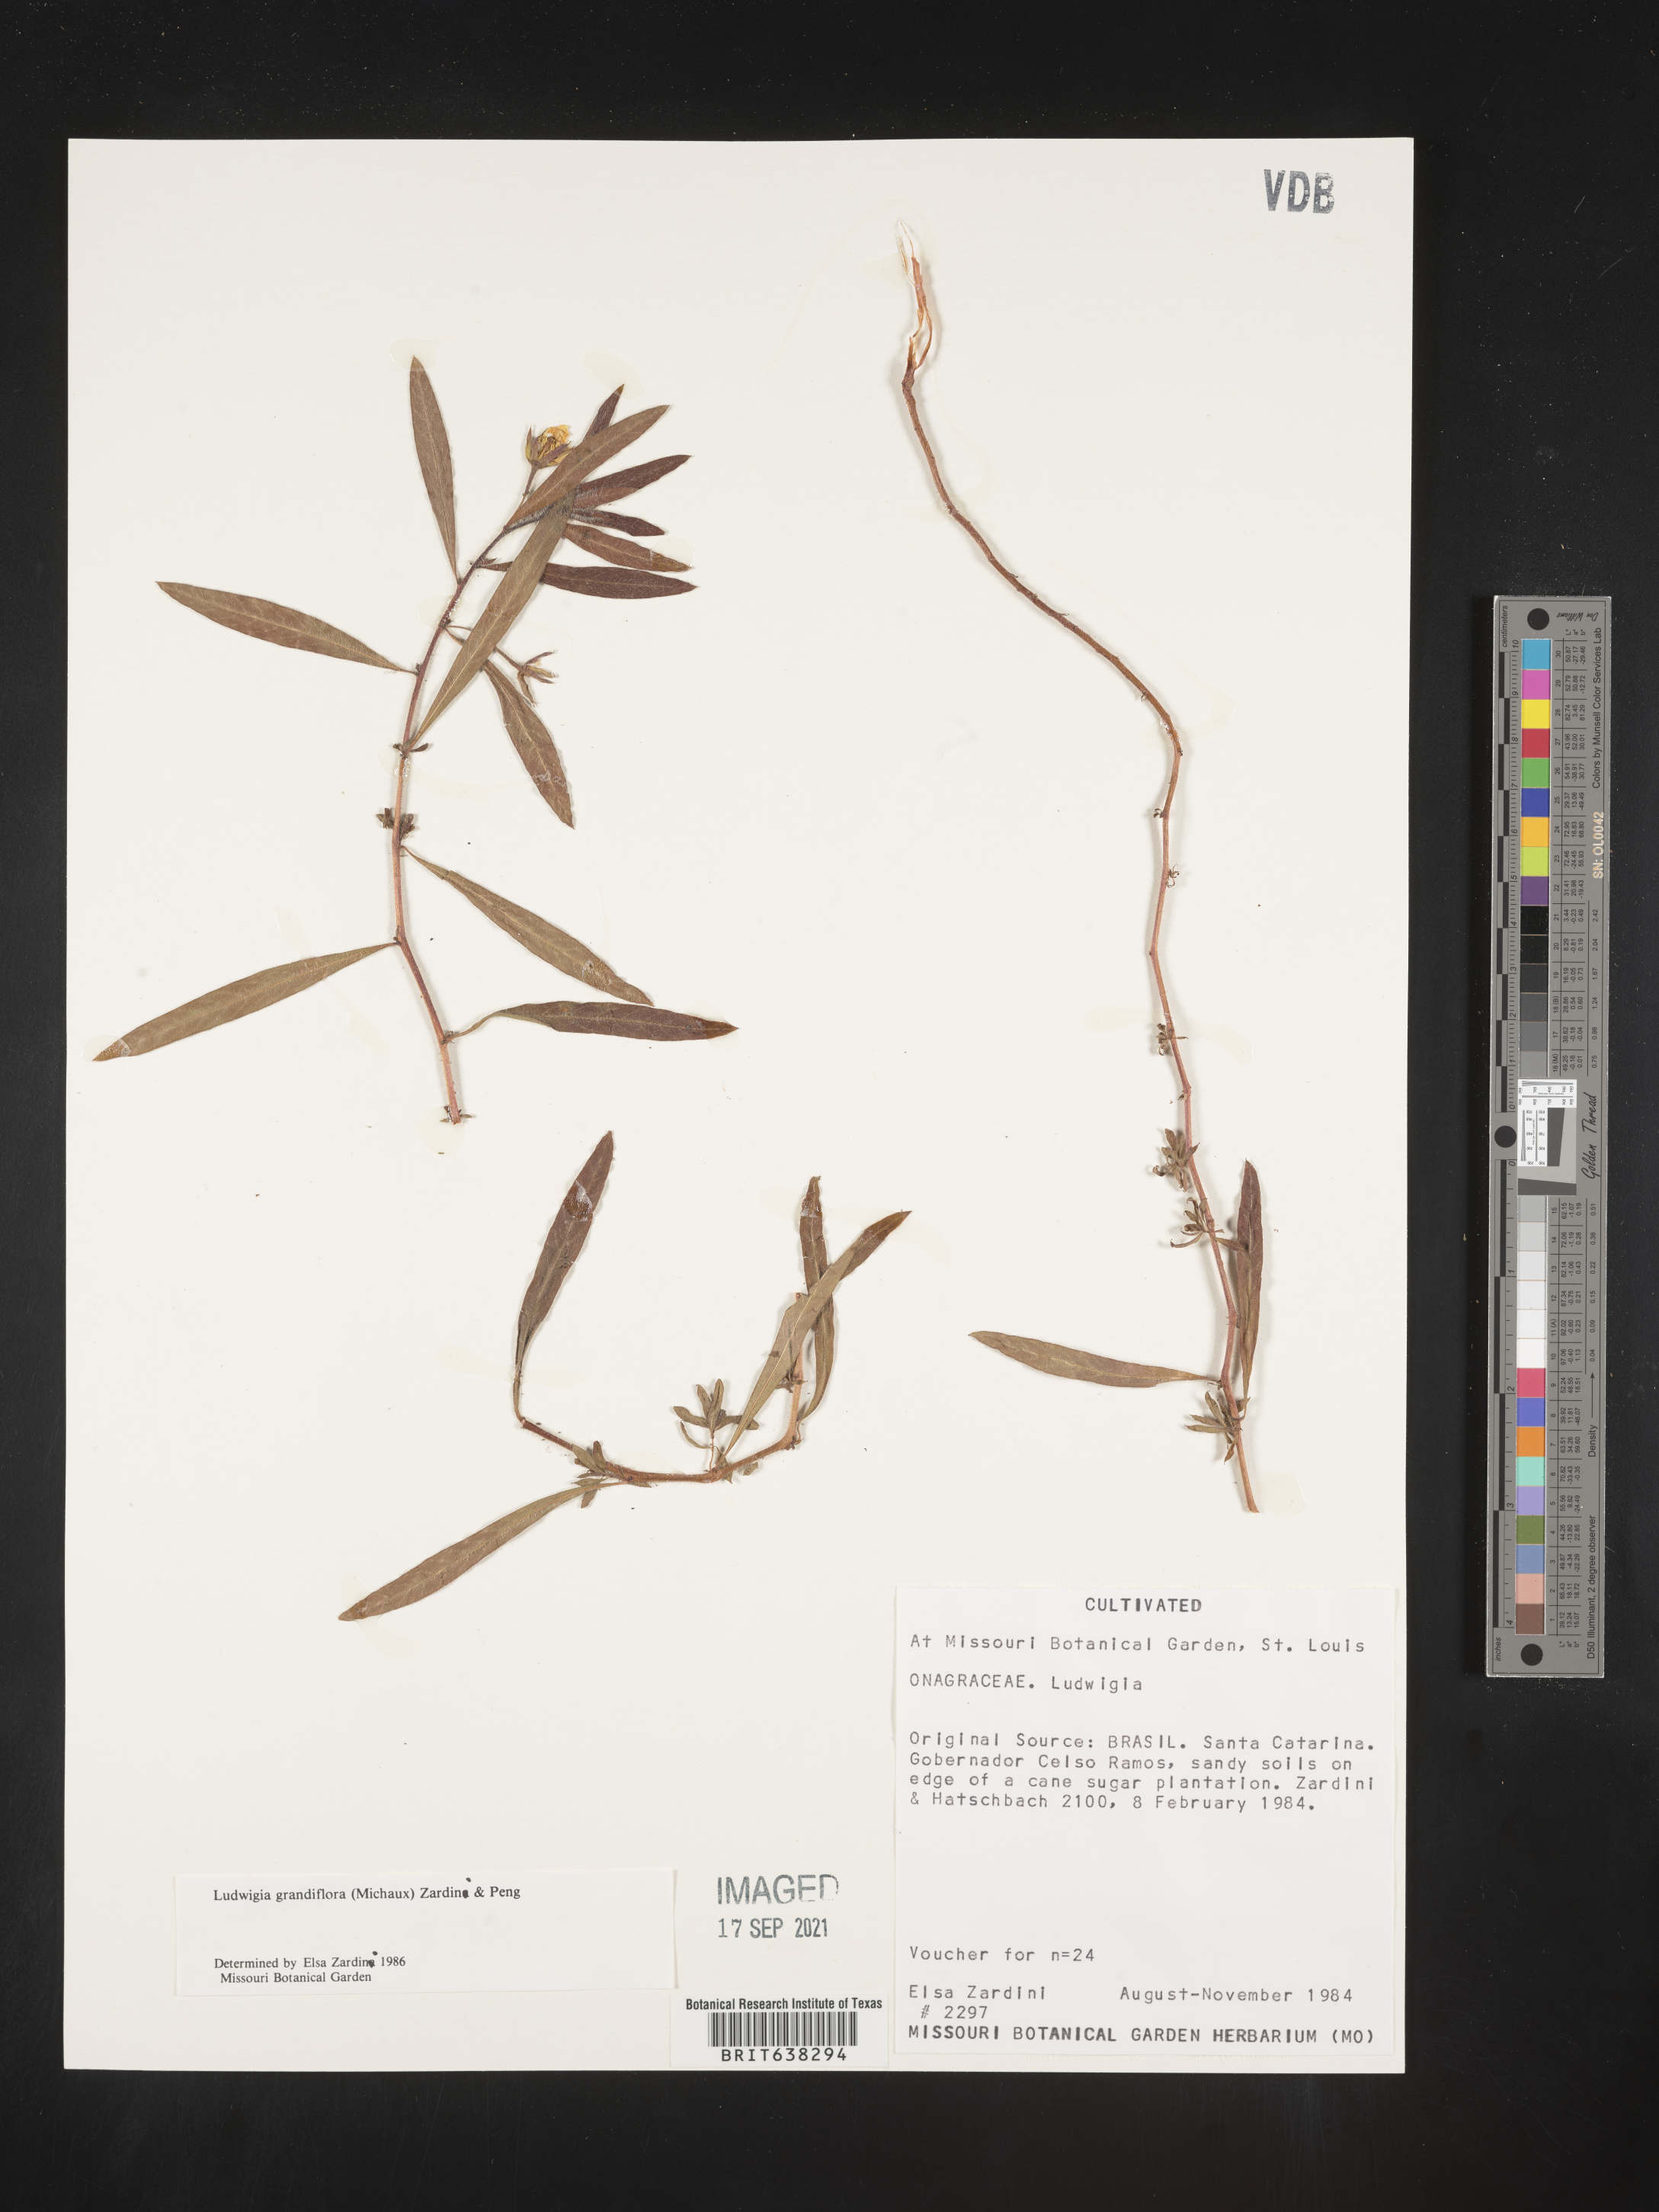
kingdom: Plantae
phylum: Tracheophyta
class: Magnoliopsida
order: Myrtales
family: Onagraceae
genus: Ludwigia
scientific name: Ludwigia
